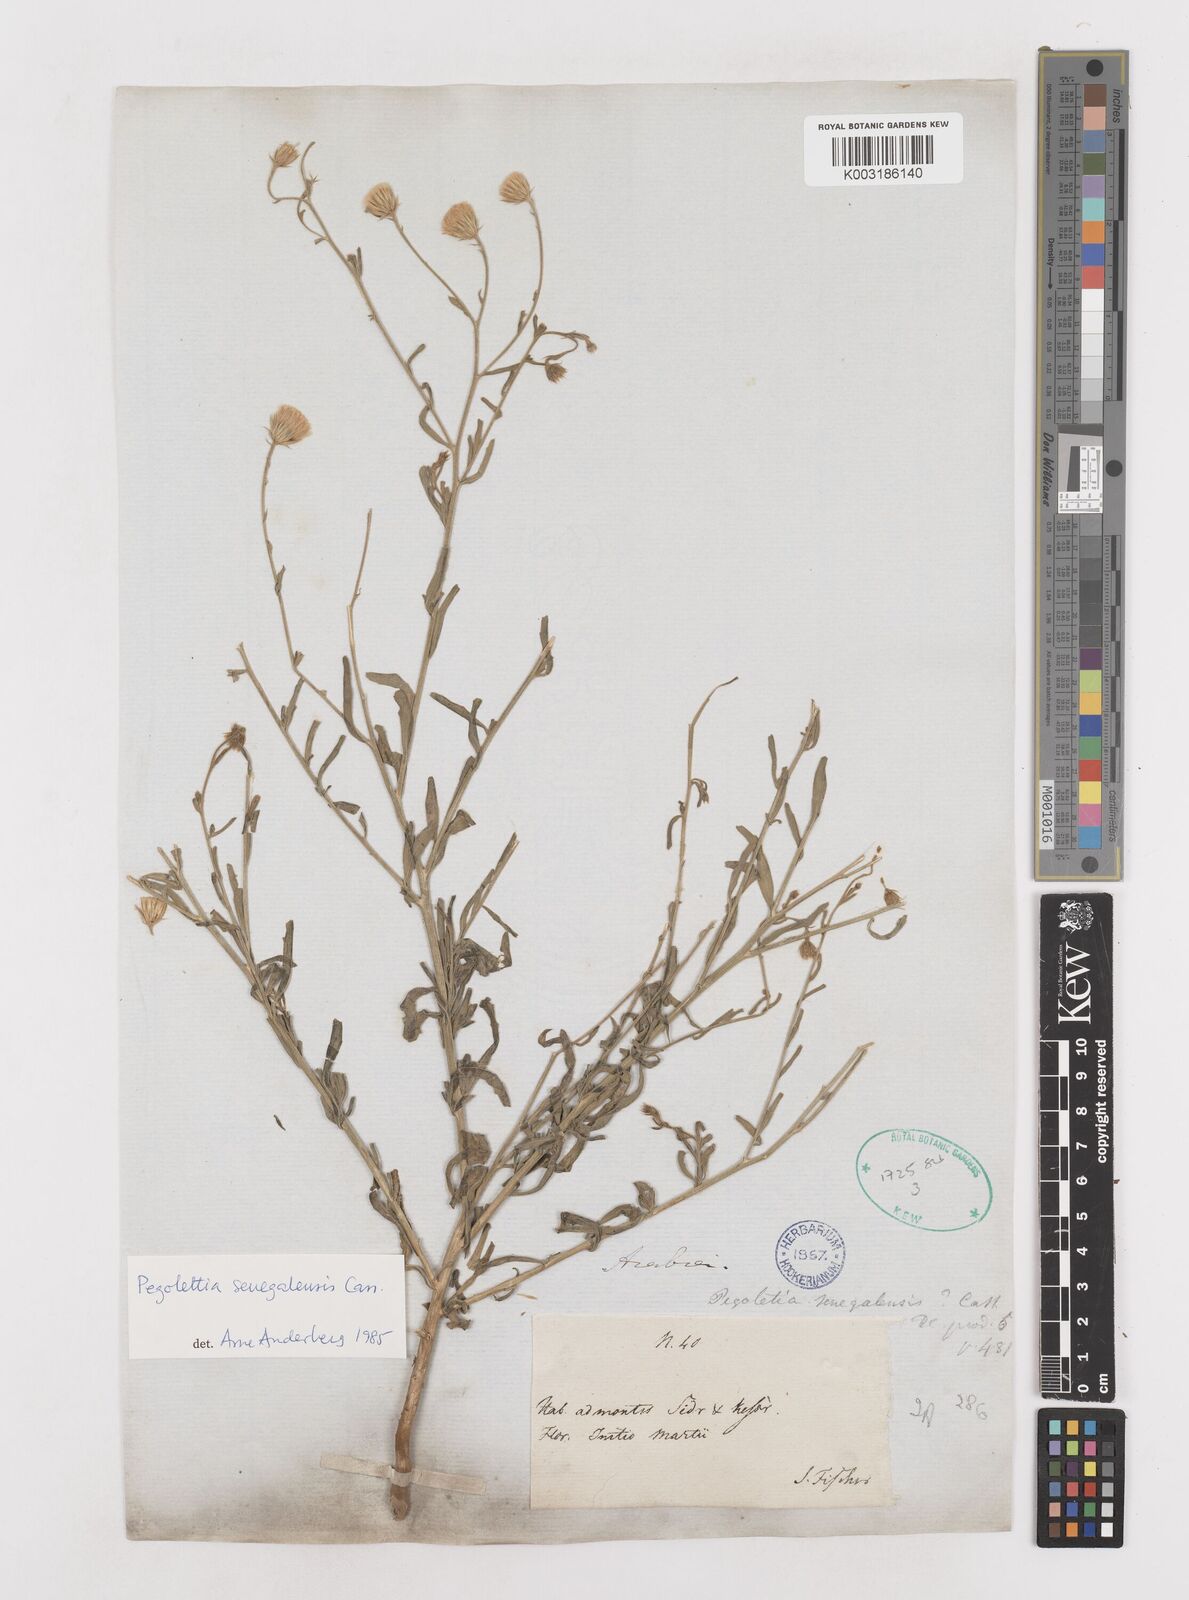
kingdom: Plantae
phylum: Tracheophyta
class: Magnoliopsida
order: Asterales
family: Asteraceae
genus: Pegolettia
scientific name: Pegolettia senegalensis
